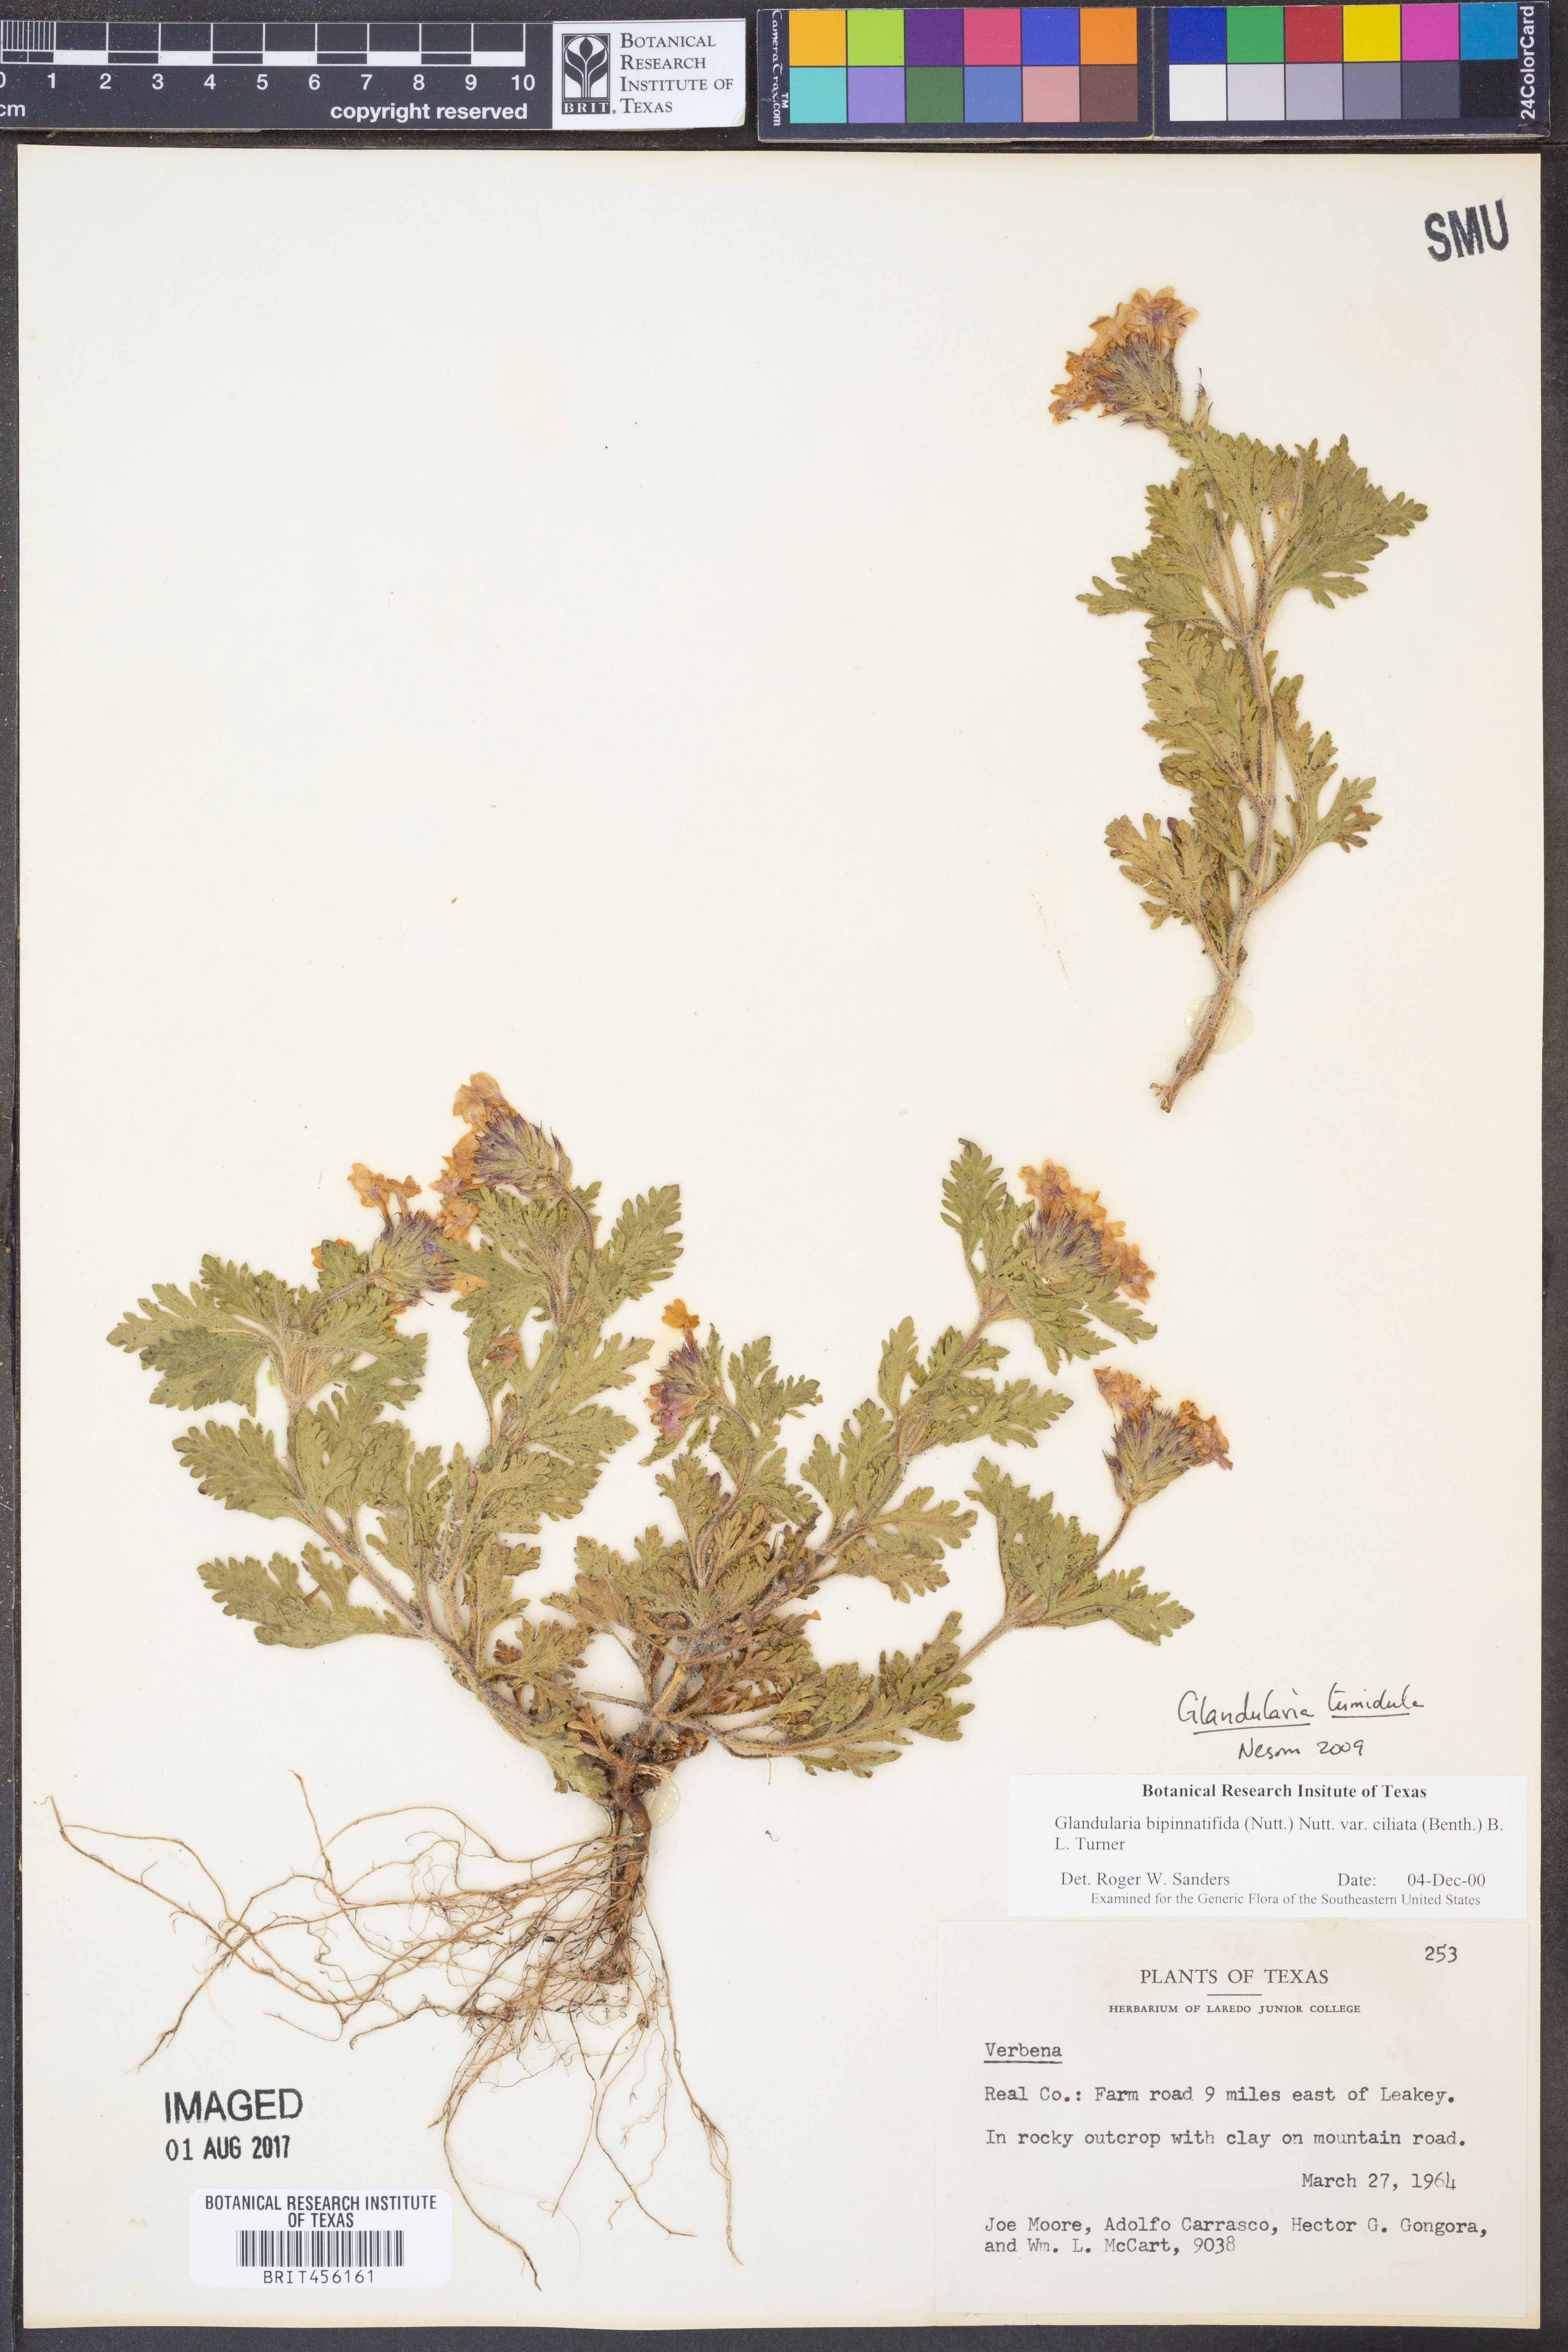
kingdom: Plantae
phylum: Tracheophyta
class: Magnoliopsida
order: Lamiales
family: Verbenaceae
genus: Verbena
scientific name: Verbena tumidula
